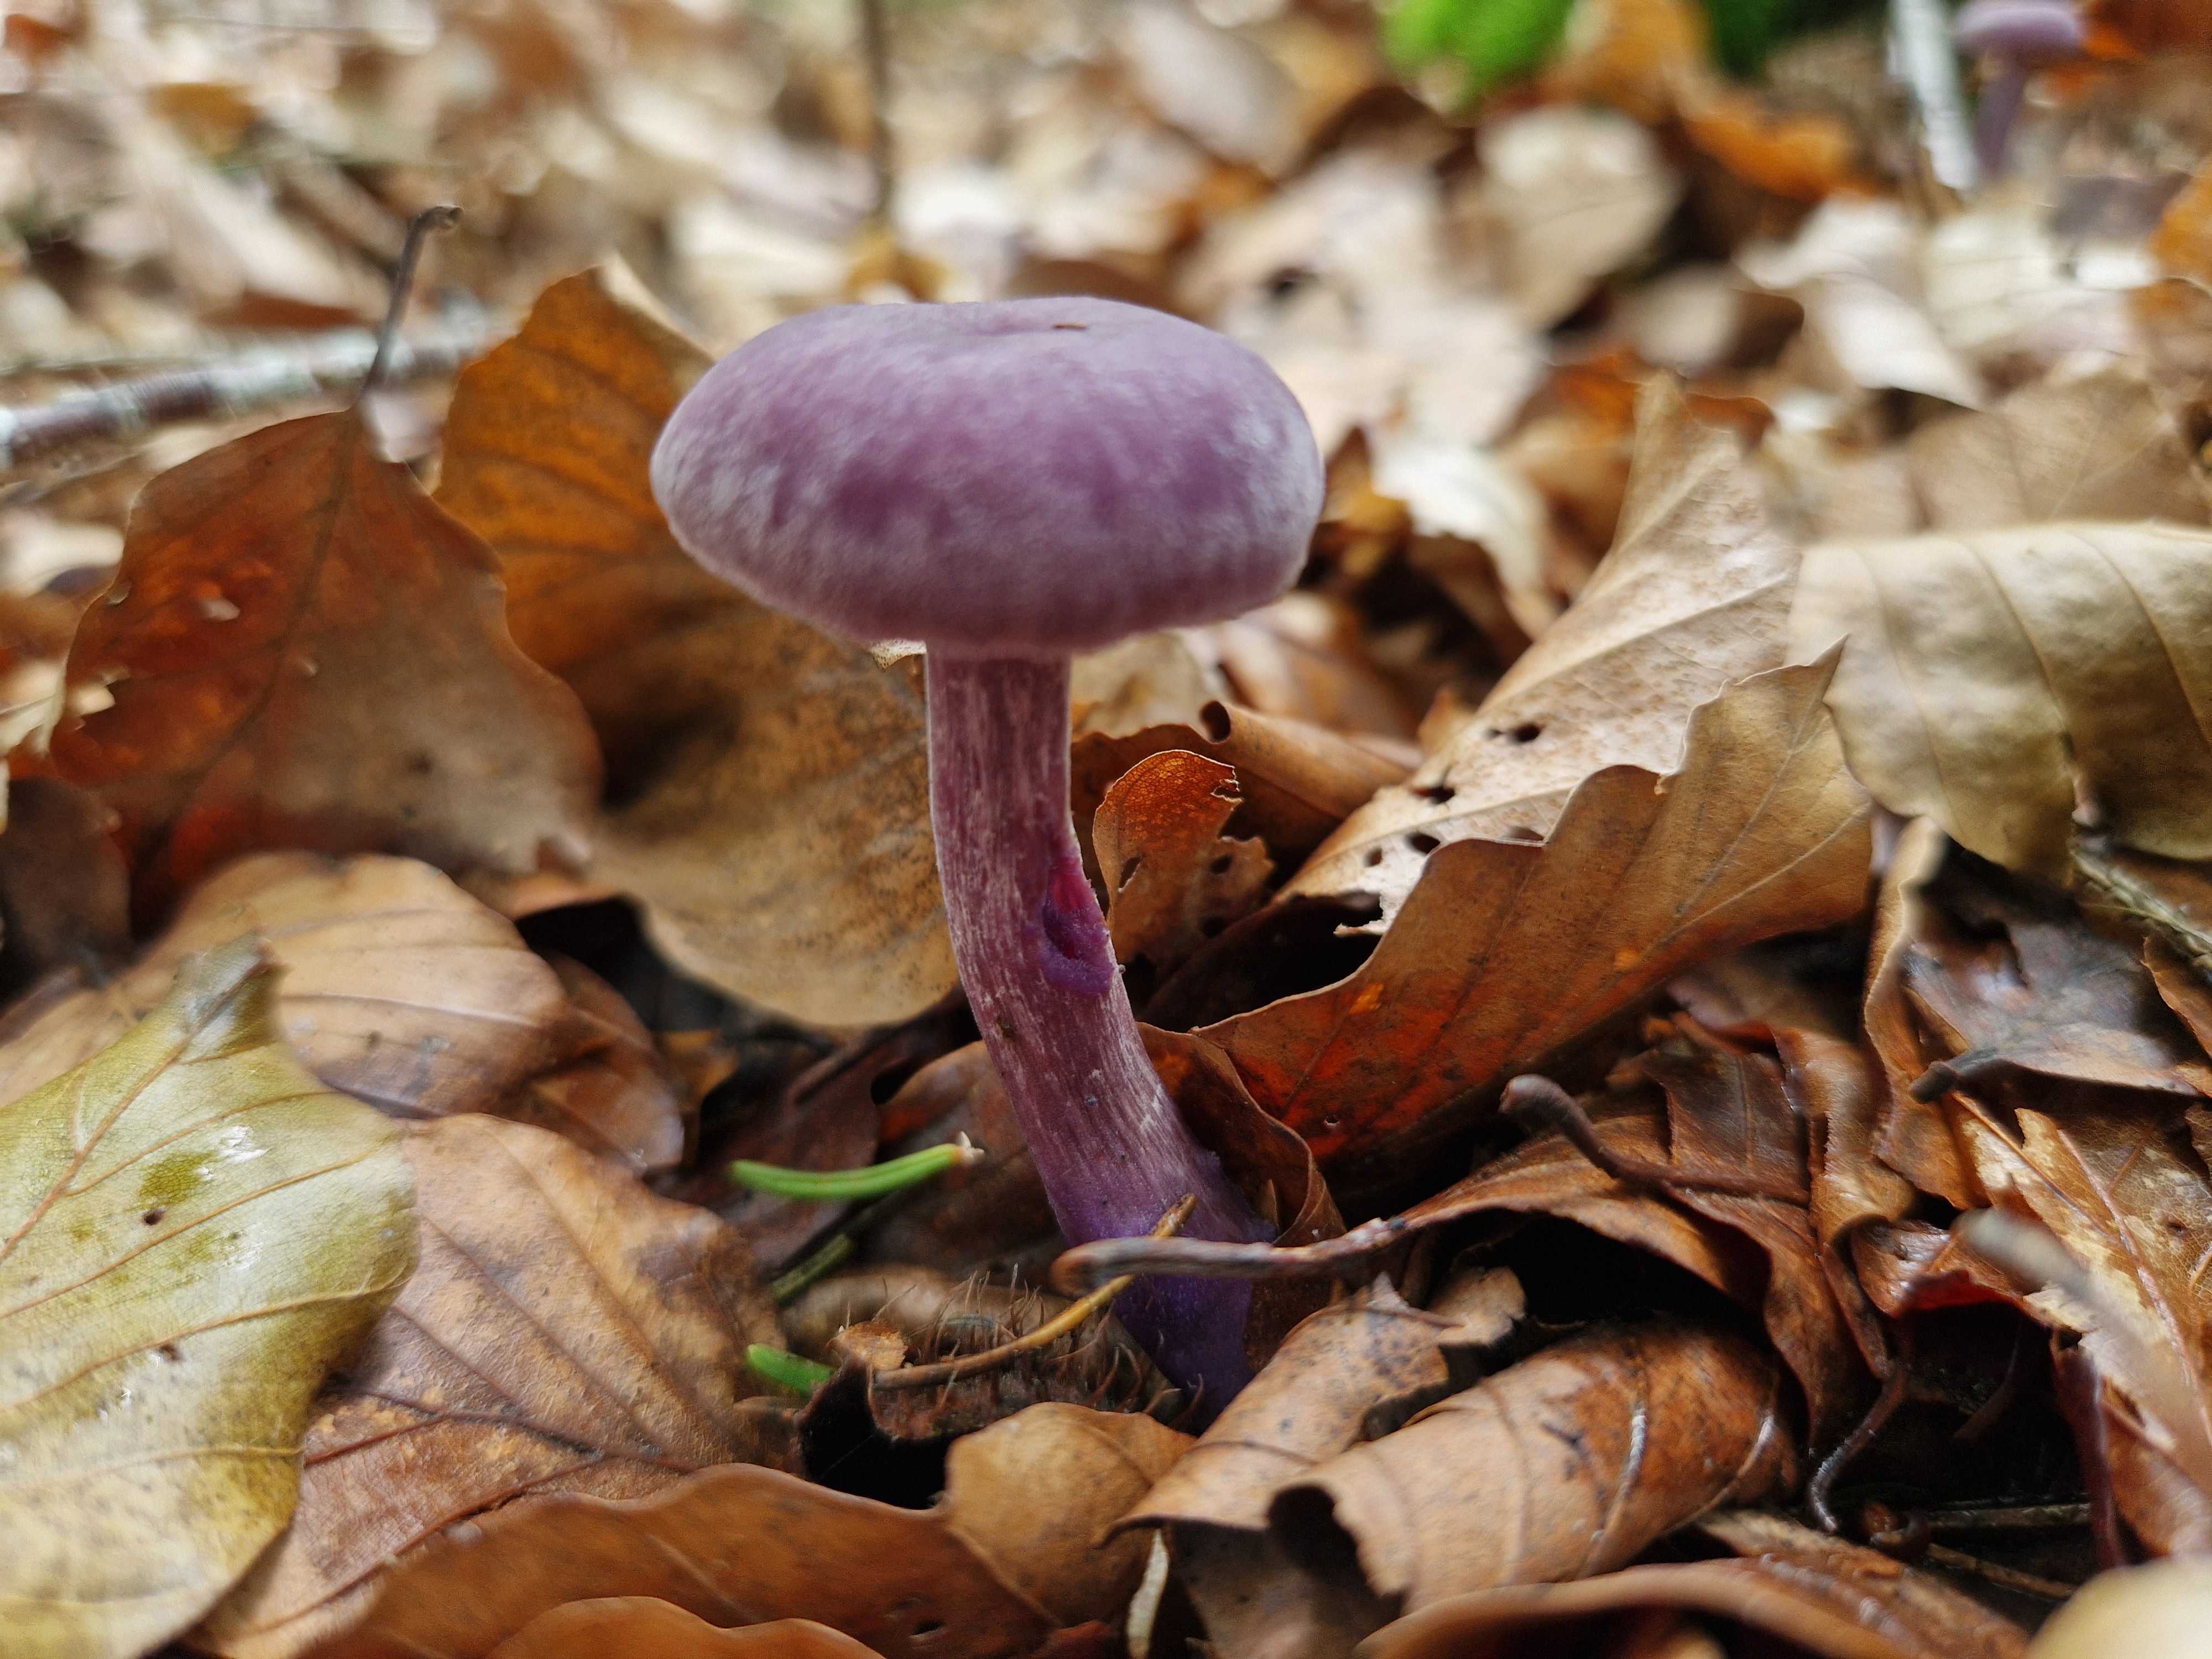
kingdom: Fungi
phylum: Basidiomycota
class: Agaricomycetes
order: Agaricales
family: Hydnangiaceae
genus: Laccaria
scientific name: Laccaria amethystina
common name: violet ametysthat
